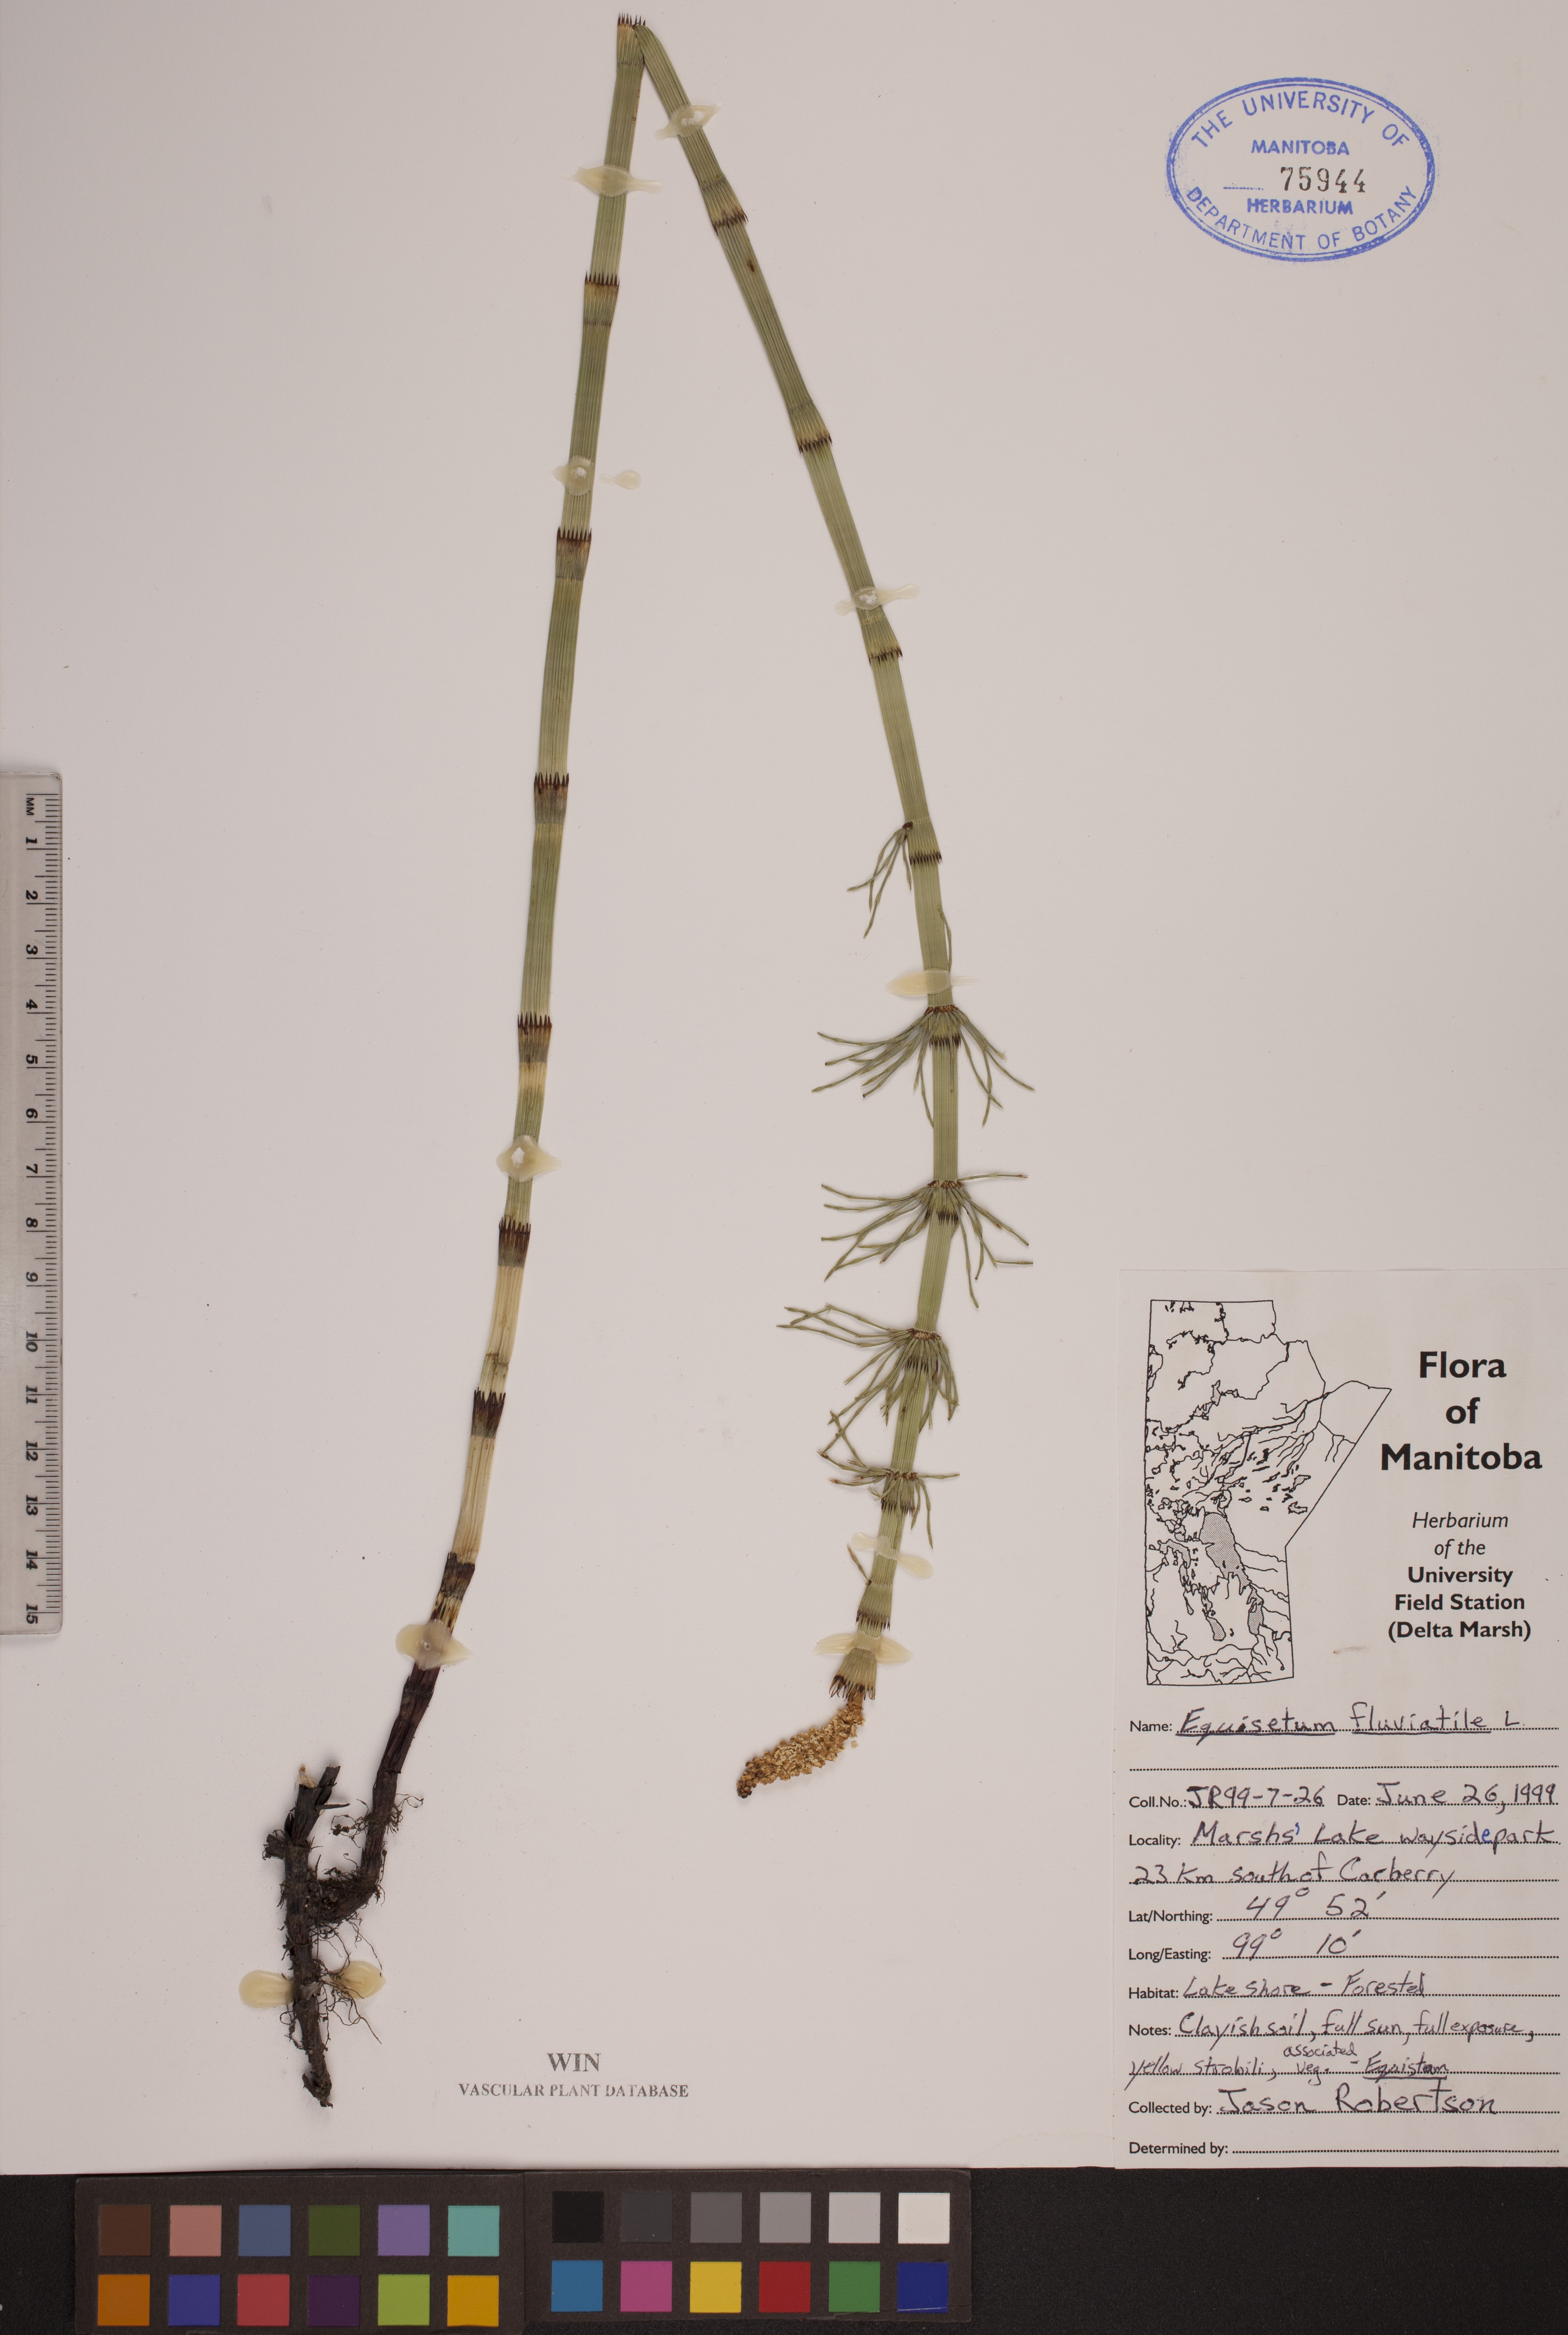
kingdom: Plantae
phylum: Tracheophyta
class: Polypodiopsida
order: Equisetales
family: Equisetaceae
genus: Equisetum
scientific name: Equisetum fluviatile
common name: Water horsetail
